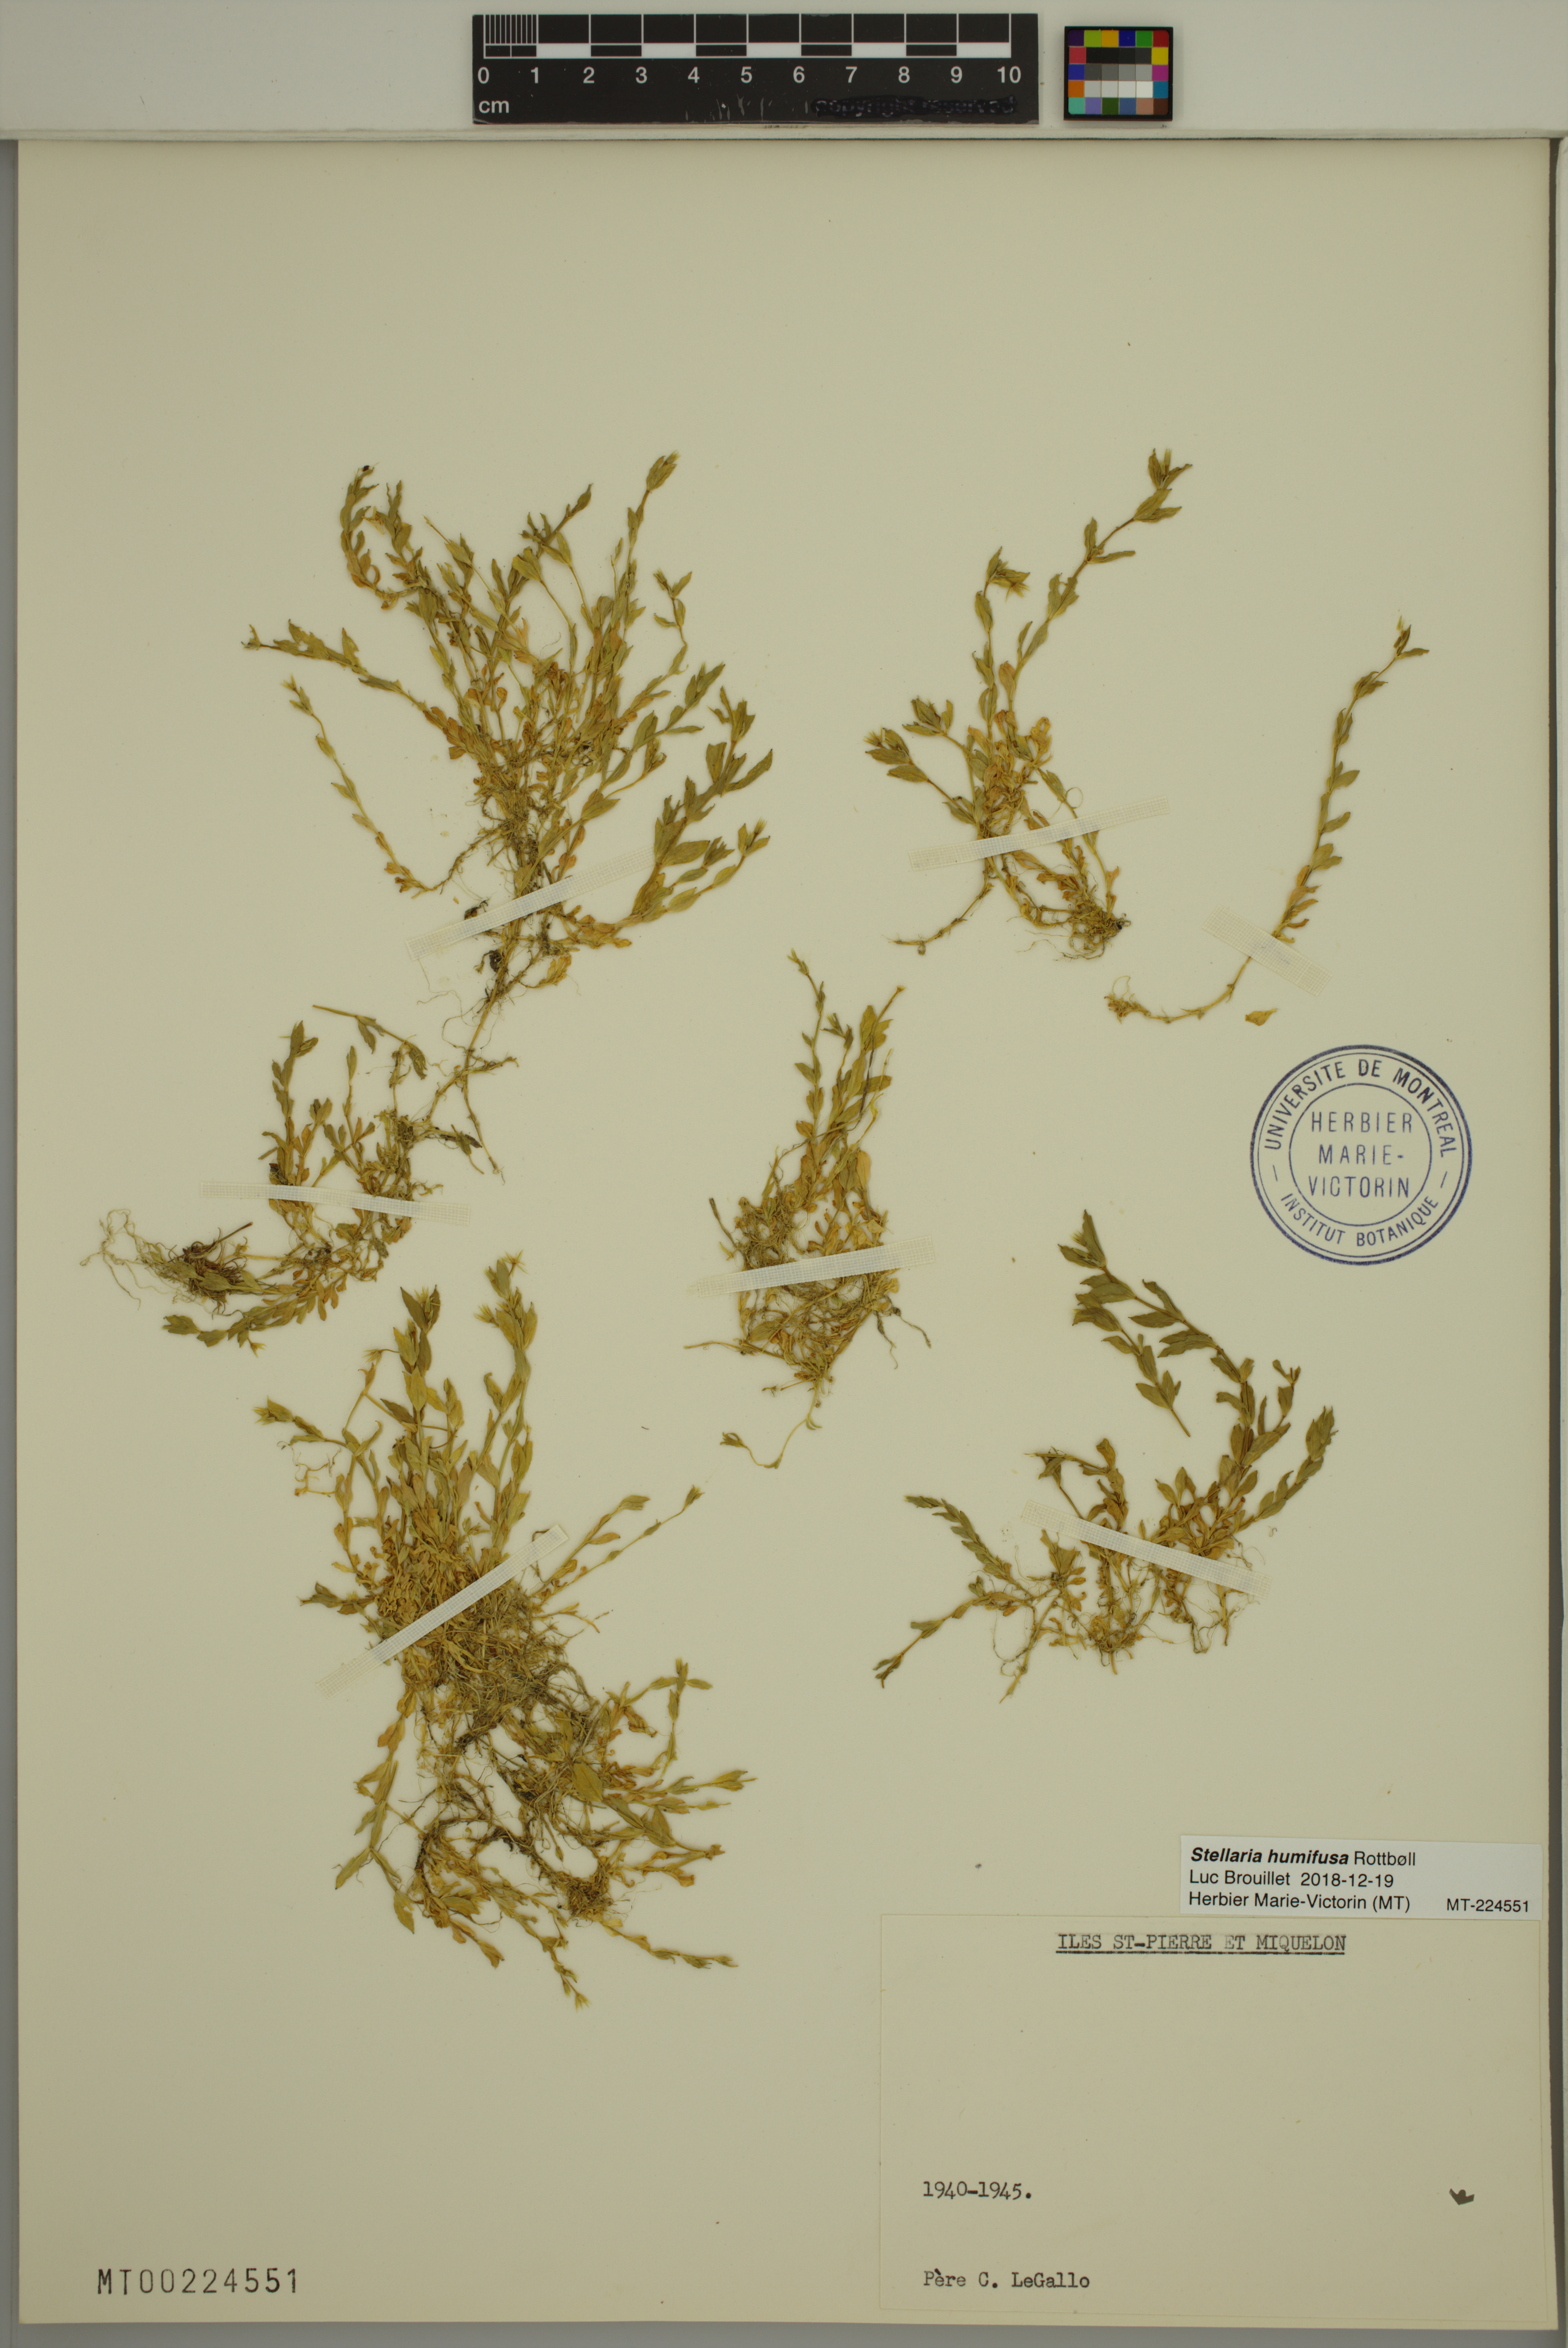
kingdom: Plantae
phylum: Tracheophyta
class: Magnoliopsida
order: Caryophyllales
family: Caryophyllaceae
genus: Stellaria
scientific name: Stellaria humifusa
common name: Creeping starwort
